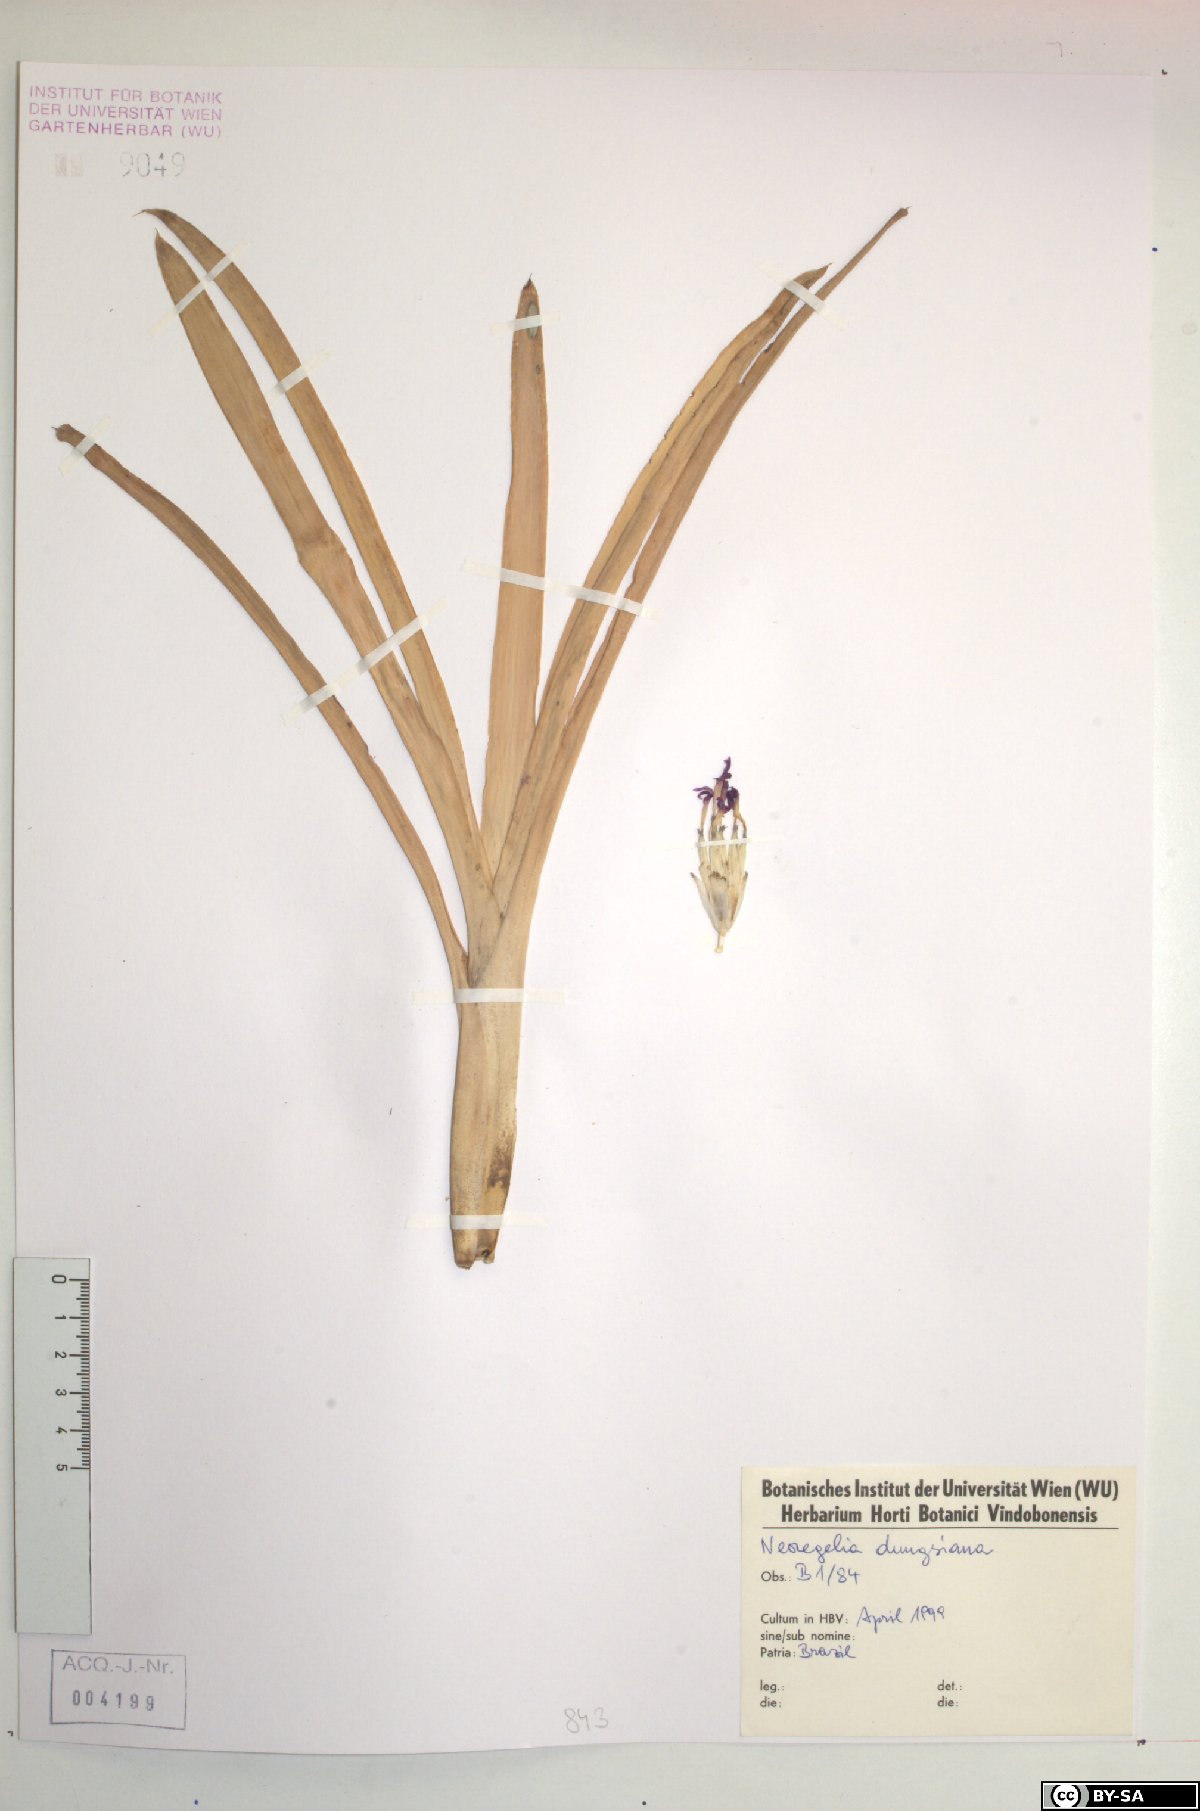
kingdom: Plantae
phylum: Tracheophyta
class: Liliopsida
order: Poales
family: Bromeliaceae
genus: Neoregelia
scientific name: Neoregelia dungsiana
